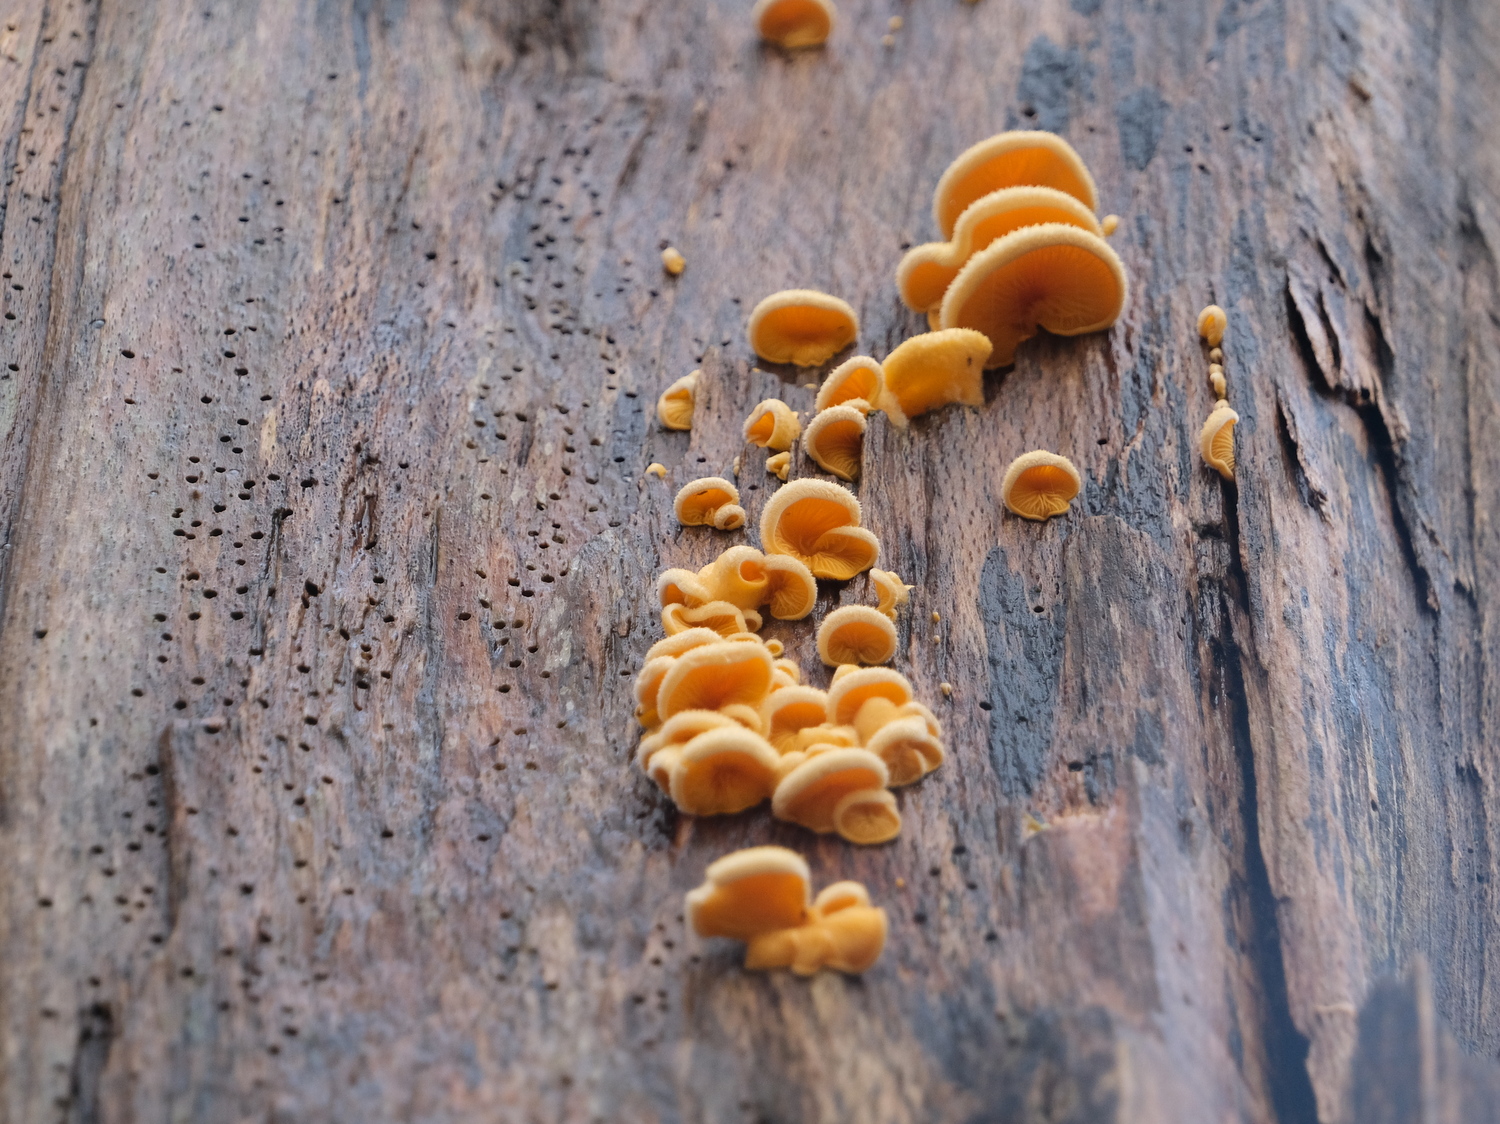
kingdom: Fungi
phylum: Basidiomycota
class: Agaricomycetes
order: Agaricales
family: Phyllotopsidaceae
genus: Phyllotopsis
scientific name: Phyllotopsis nidulans
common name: okkerblad
